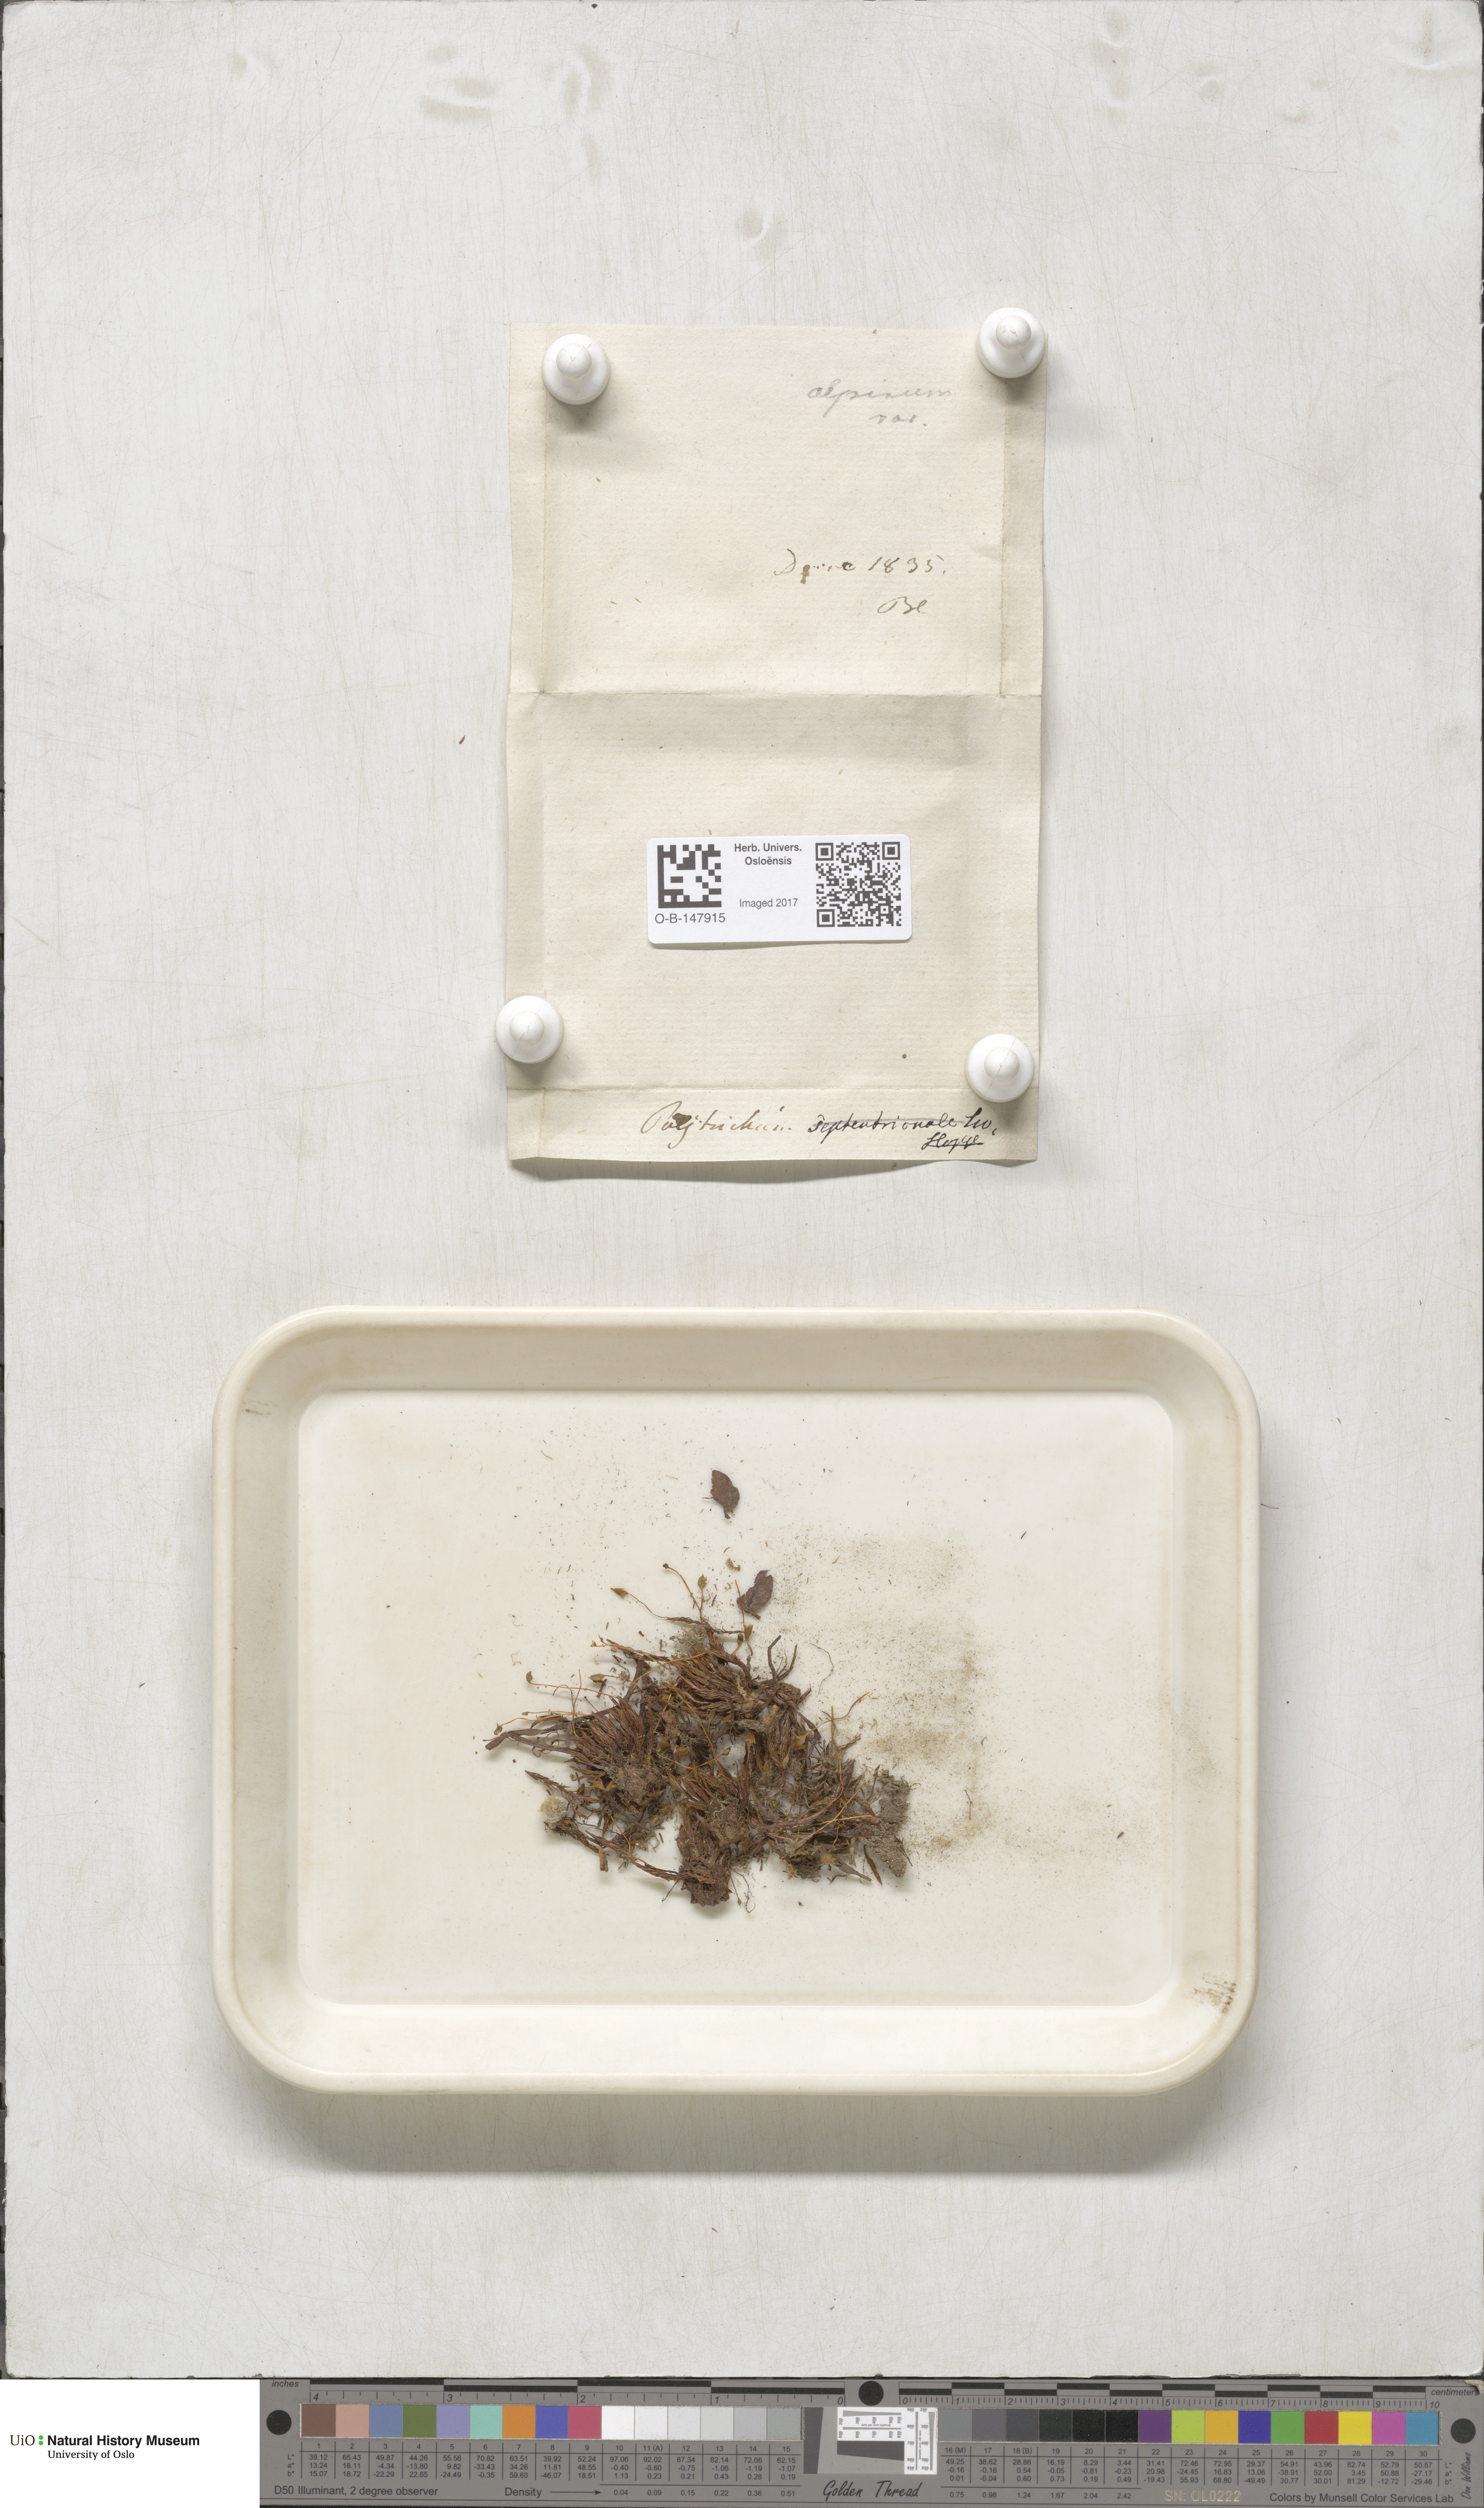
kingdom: Plantae
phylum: Bryophyta
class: Polytrichopsida
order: Polytrichales
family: Polytrichaceae
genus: Polytrichastrum
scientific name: Polytrichastrum alpinum
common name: Alpine haircap
